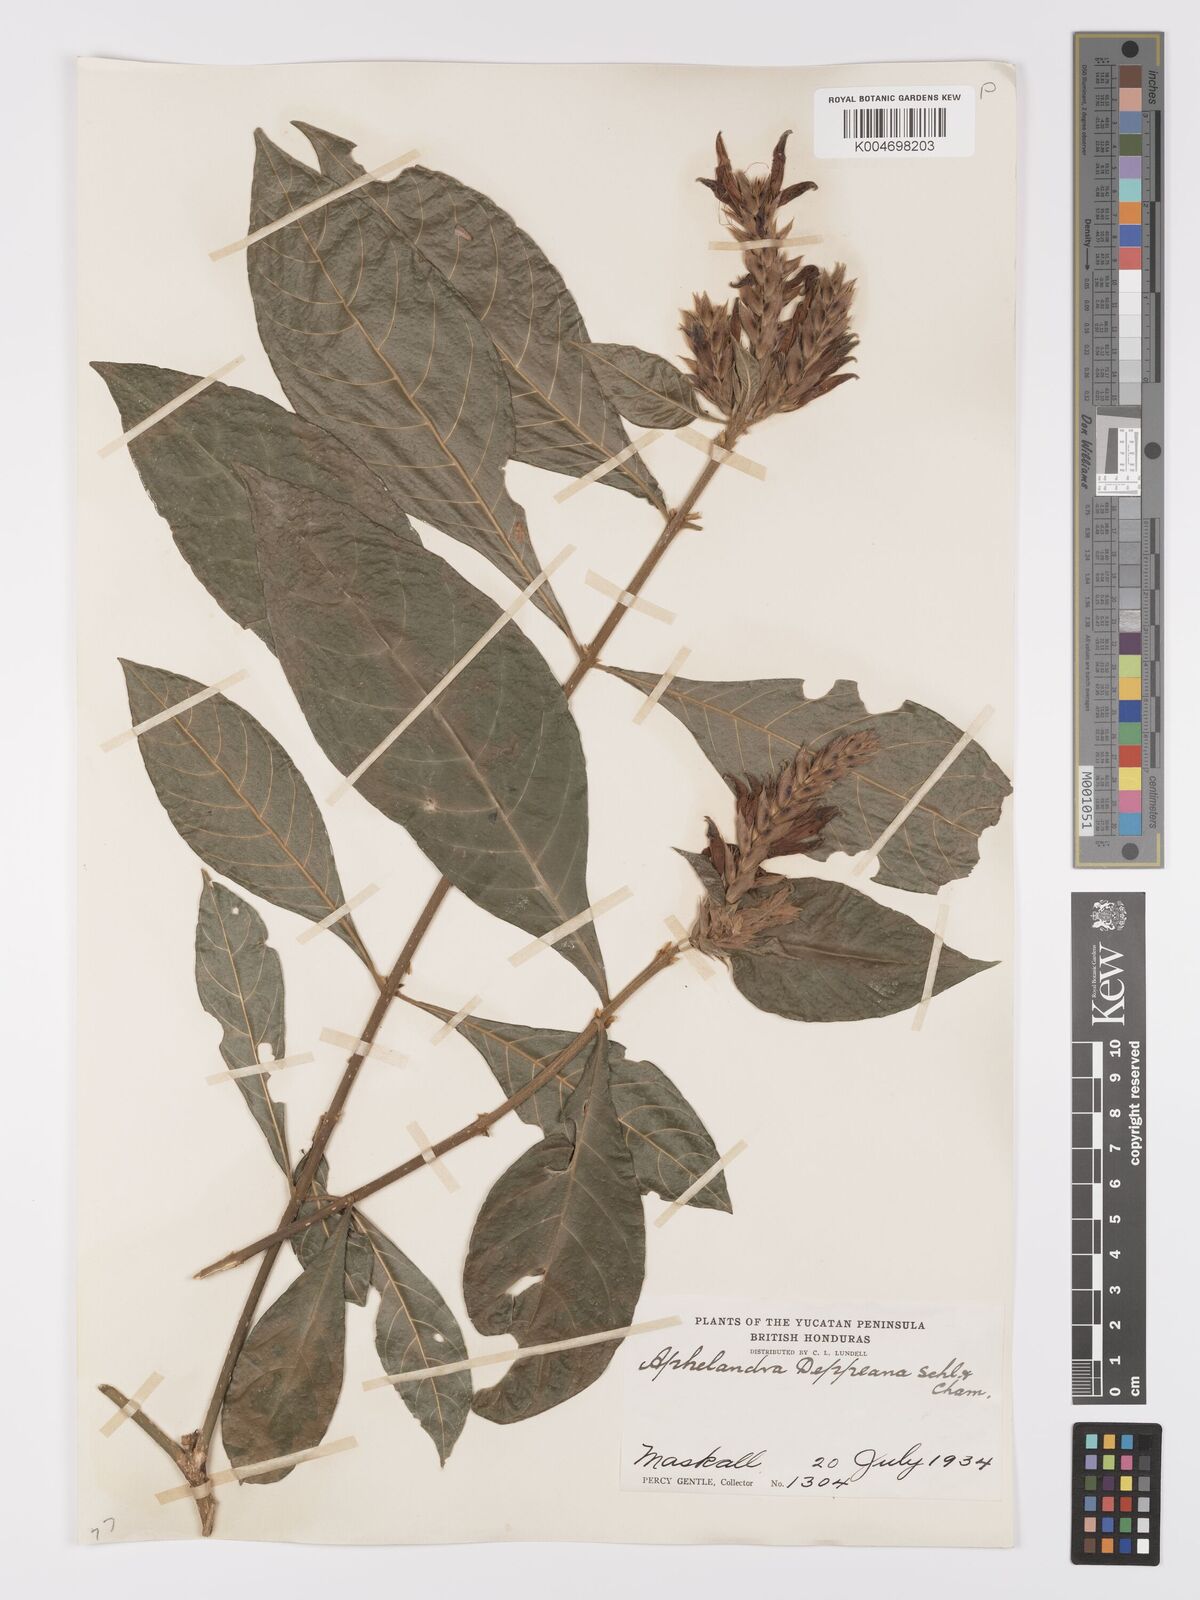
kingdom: Plantae
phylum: Tracheophyta
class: Magnoliopsida
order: Lamiales
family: Acanthaceae
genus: Aphelandra
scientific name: Aphelandra scabra
